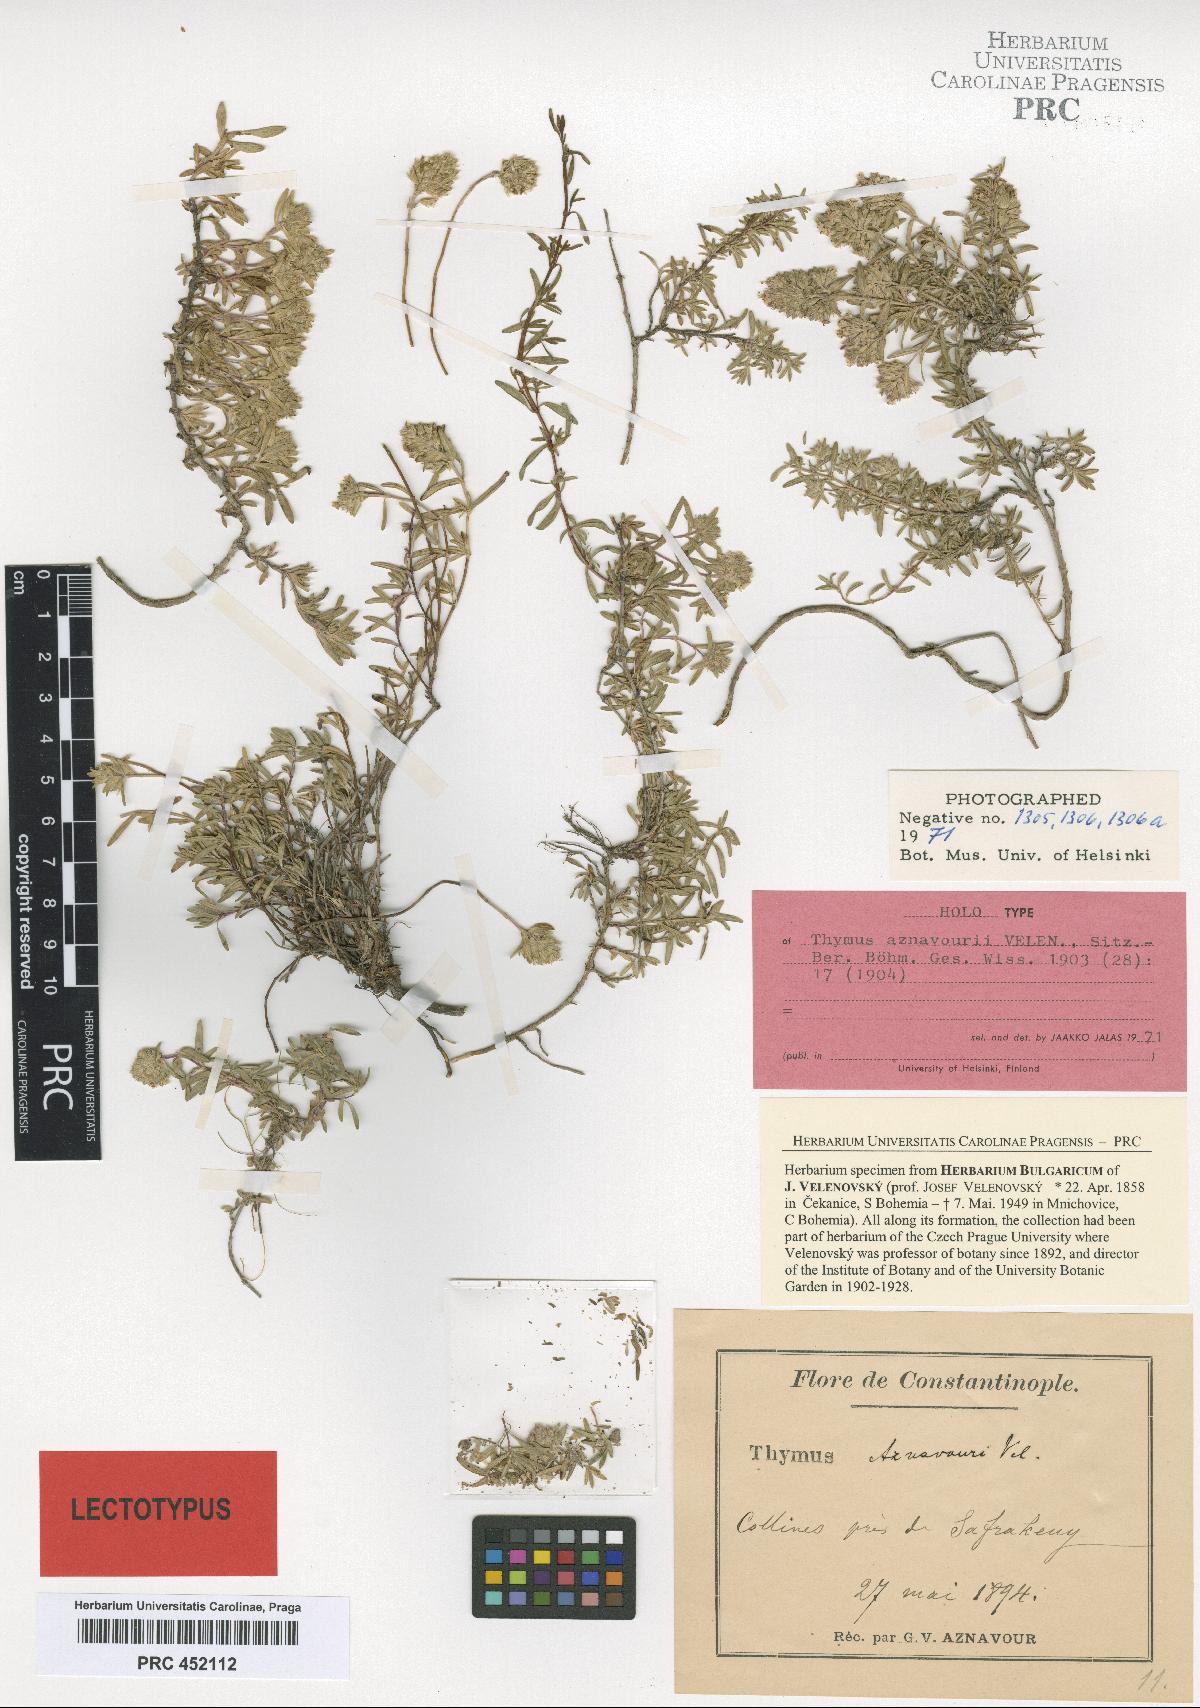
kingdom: Plantae
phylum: Tracheophyta
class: Magnoliopsida
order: Lamiales
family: Lamiaceae
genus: Thymus
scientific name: Thymus aznavourii
